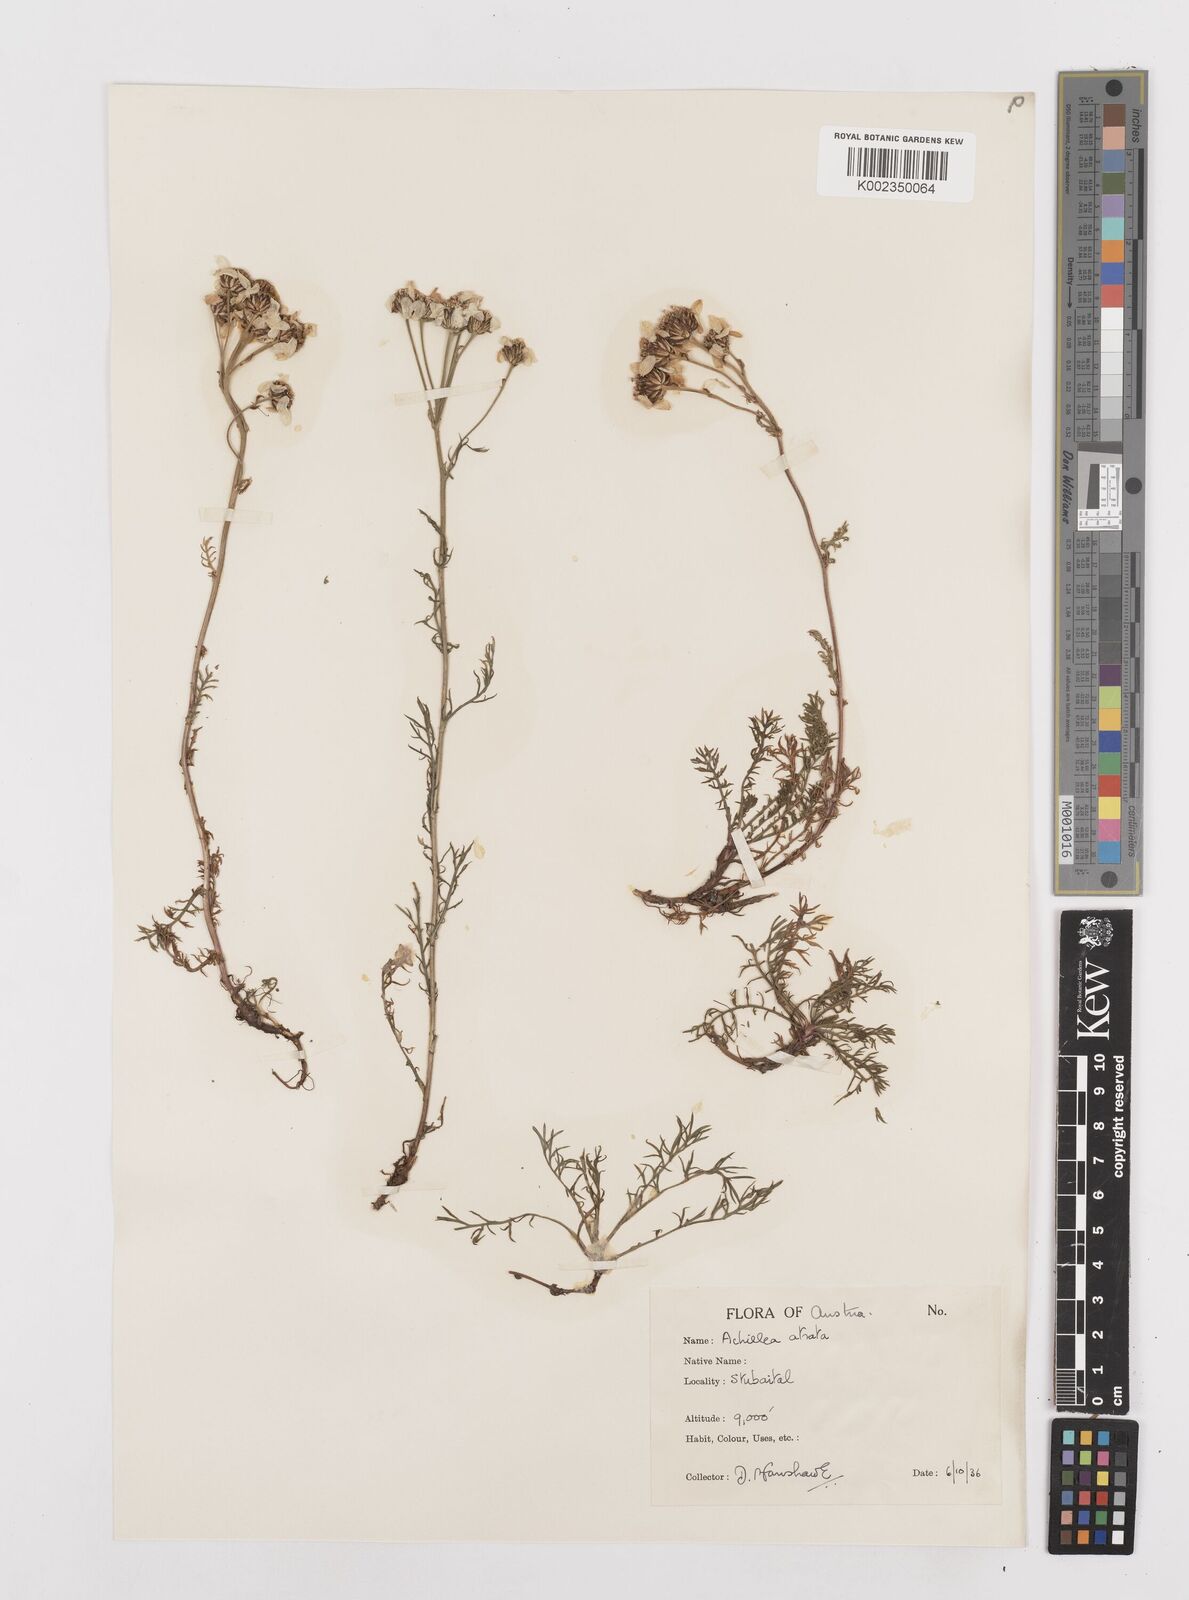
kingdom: Plantae
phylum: Tracheophyta
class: Magnoliopsida
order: Asterales
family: Asteraceae
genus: Achillea
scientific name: Achillea atrata
